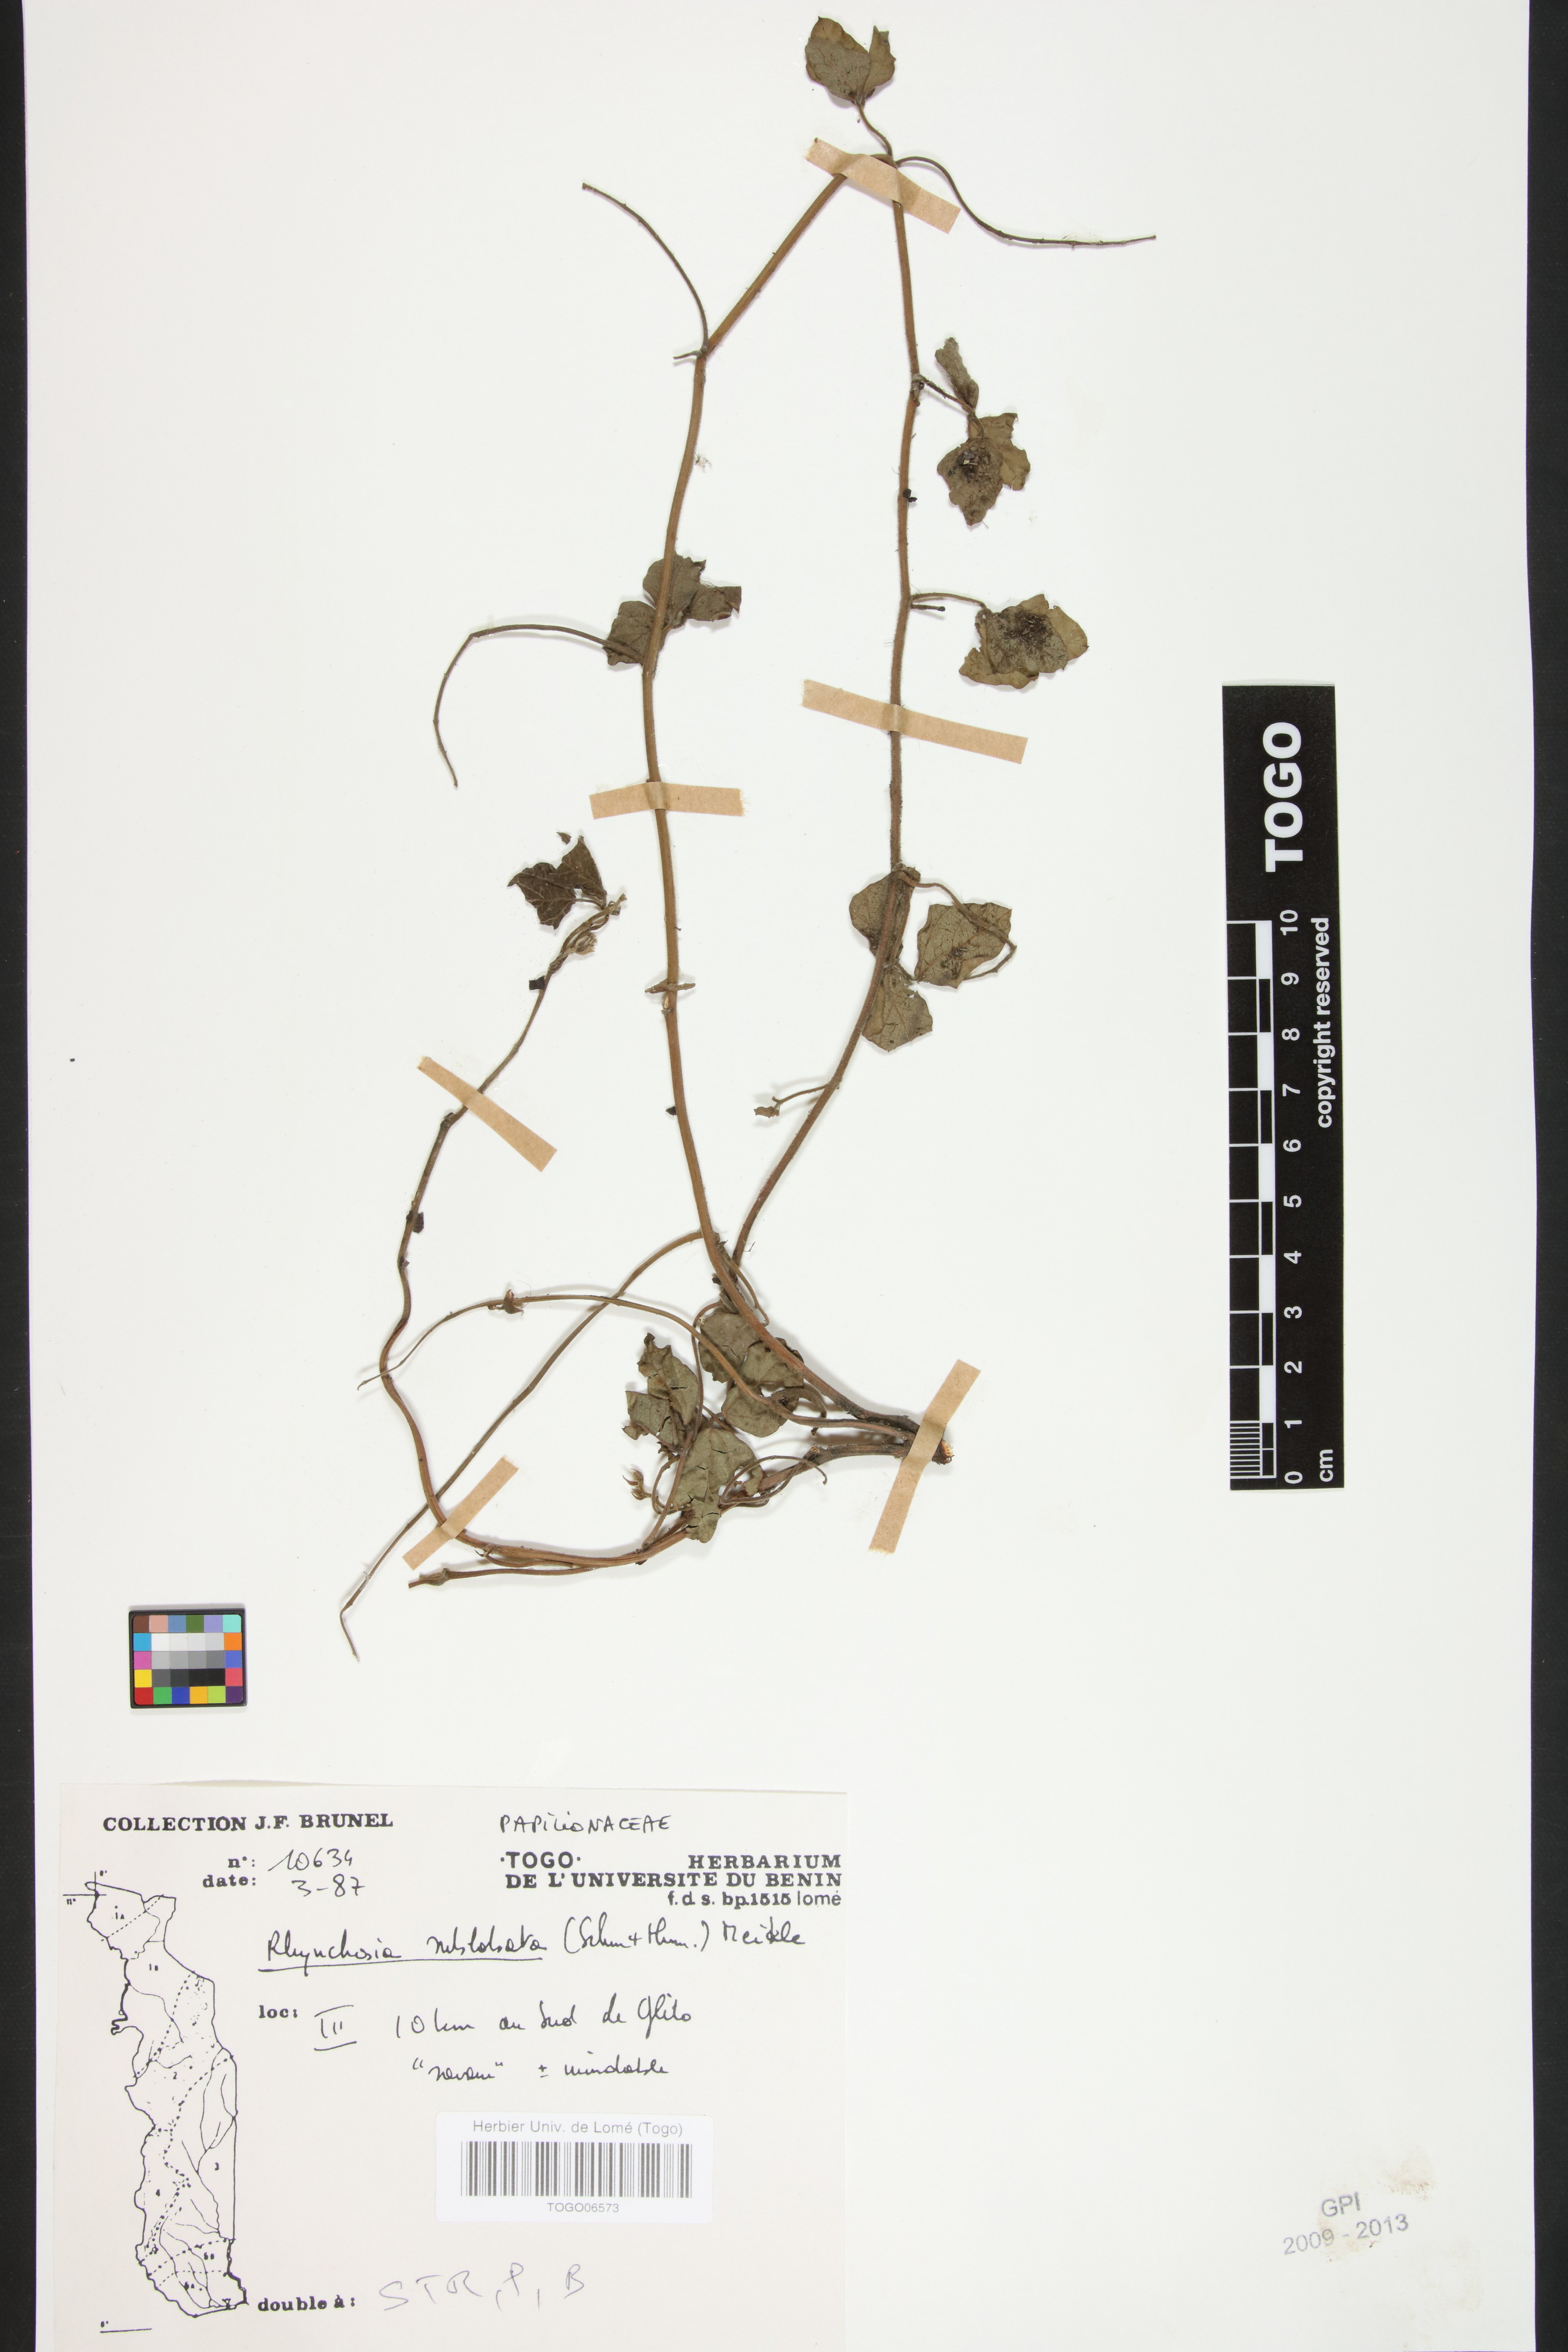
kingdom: Plantae
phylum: Tracheophyta
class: Magnoliopsida
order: Fabales
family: Fabaceae
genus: Rhynchosia
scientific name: Rhynchosia sublobata
